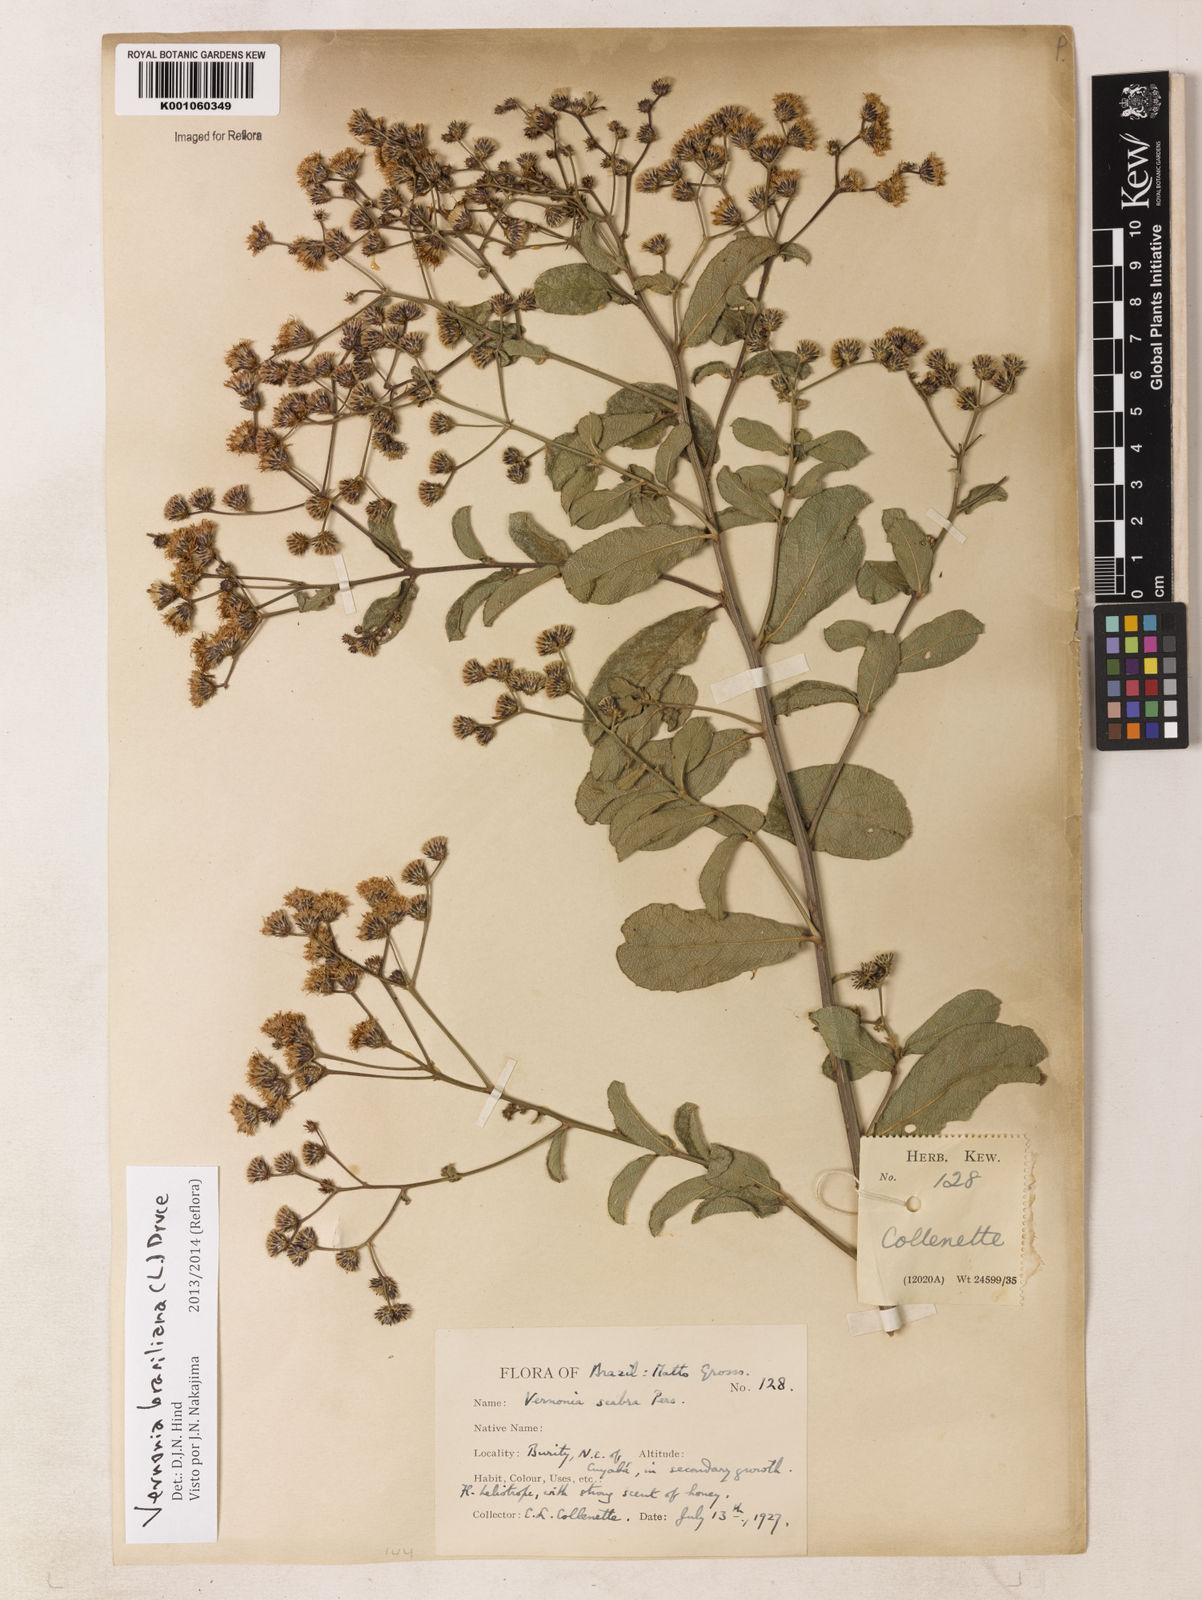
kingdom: Plantae
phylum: Tracheophyta
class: Magnoliopsida
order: Asterales
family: Asteraceae
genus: Vernonanthura
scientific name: Vernonanthura brasiliana
